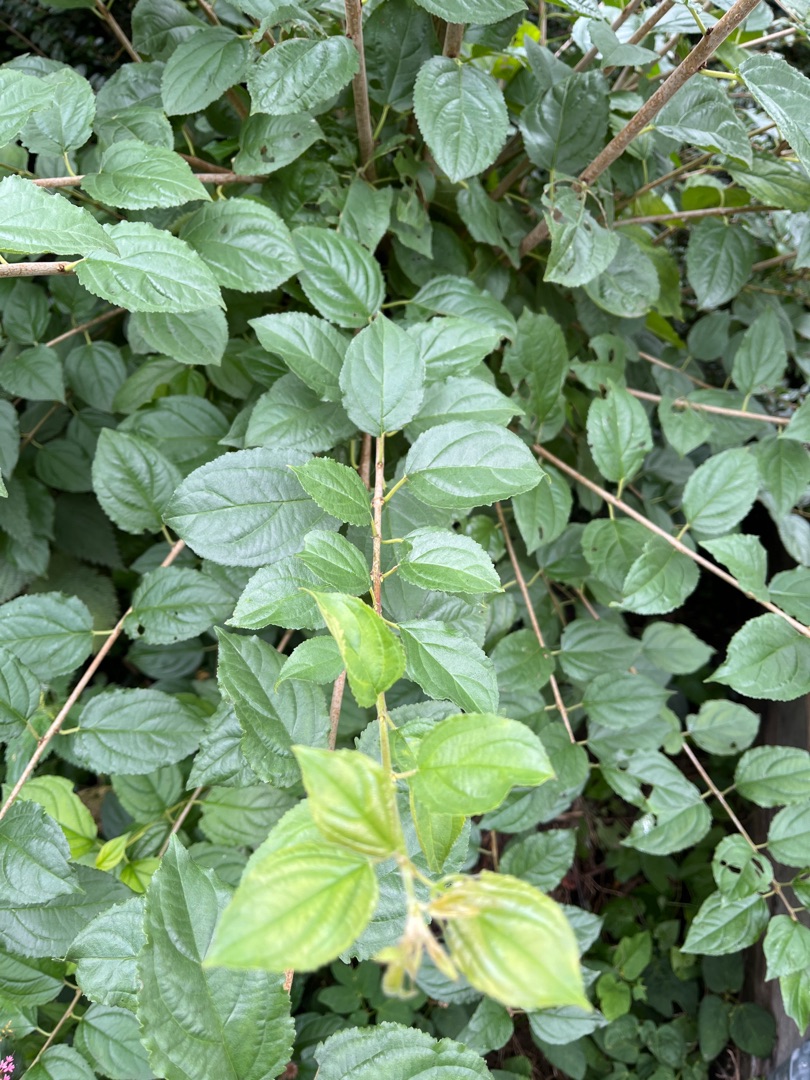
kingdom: Plantae
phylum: Tracheophyta
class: Magnoliopsida
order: Rosales
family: Rhamnaceae
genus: Rhamnus
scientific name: Rhamnus cathartica
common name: Vrietorn
